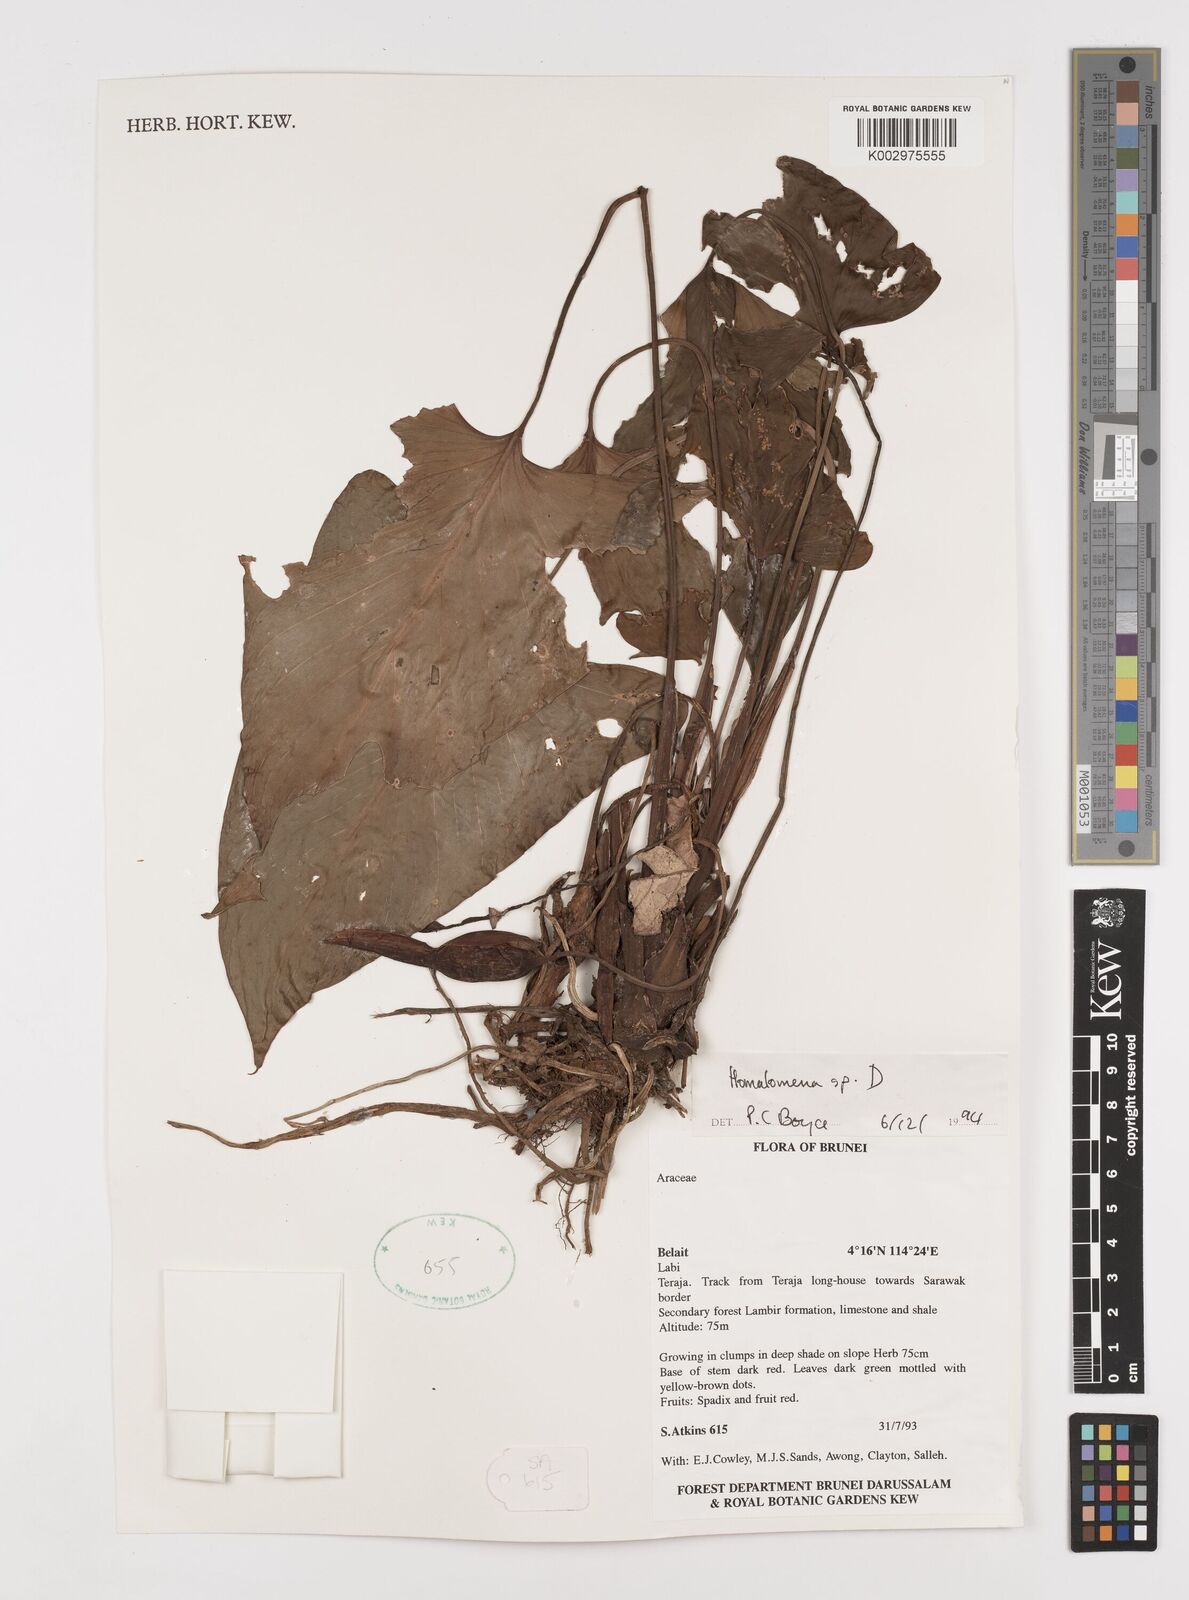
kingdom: Plantae
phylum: Tracheophyta
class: Liliopsida
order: Alismatales
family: Araceae
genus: Homalomena
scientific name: Homalomena
